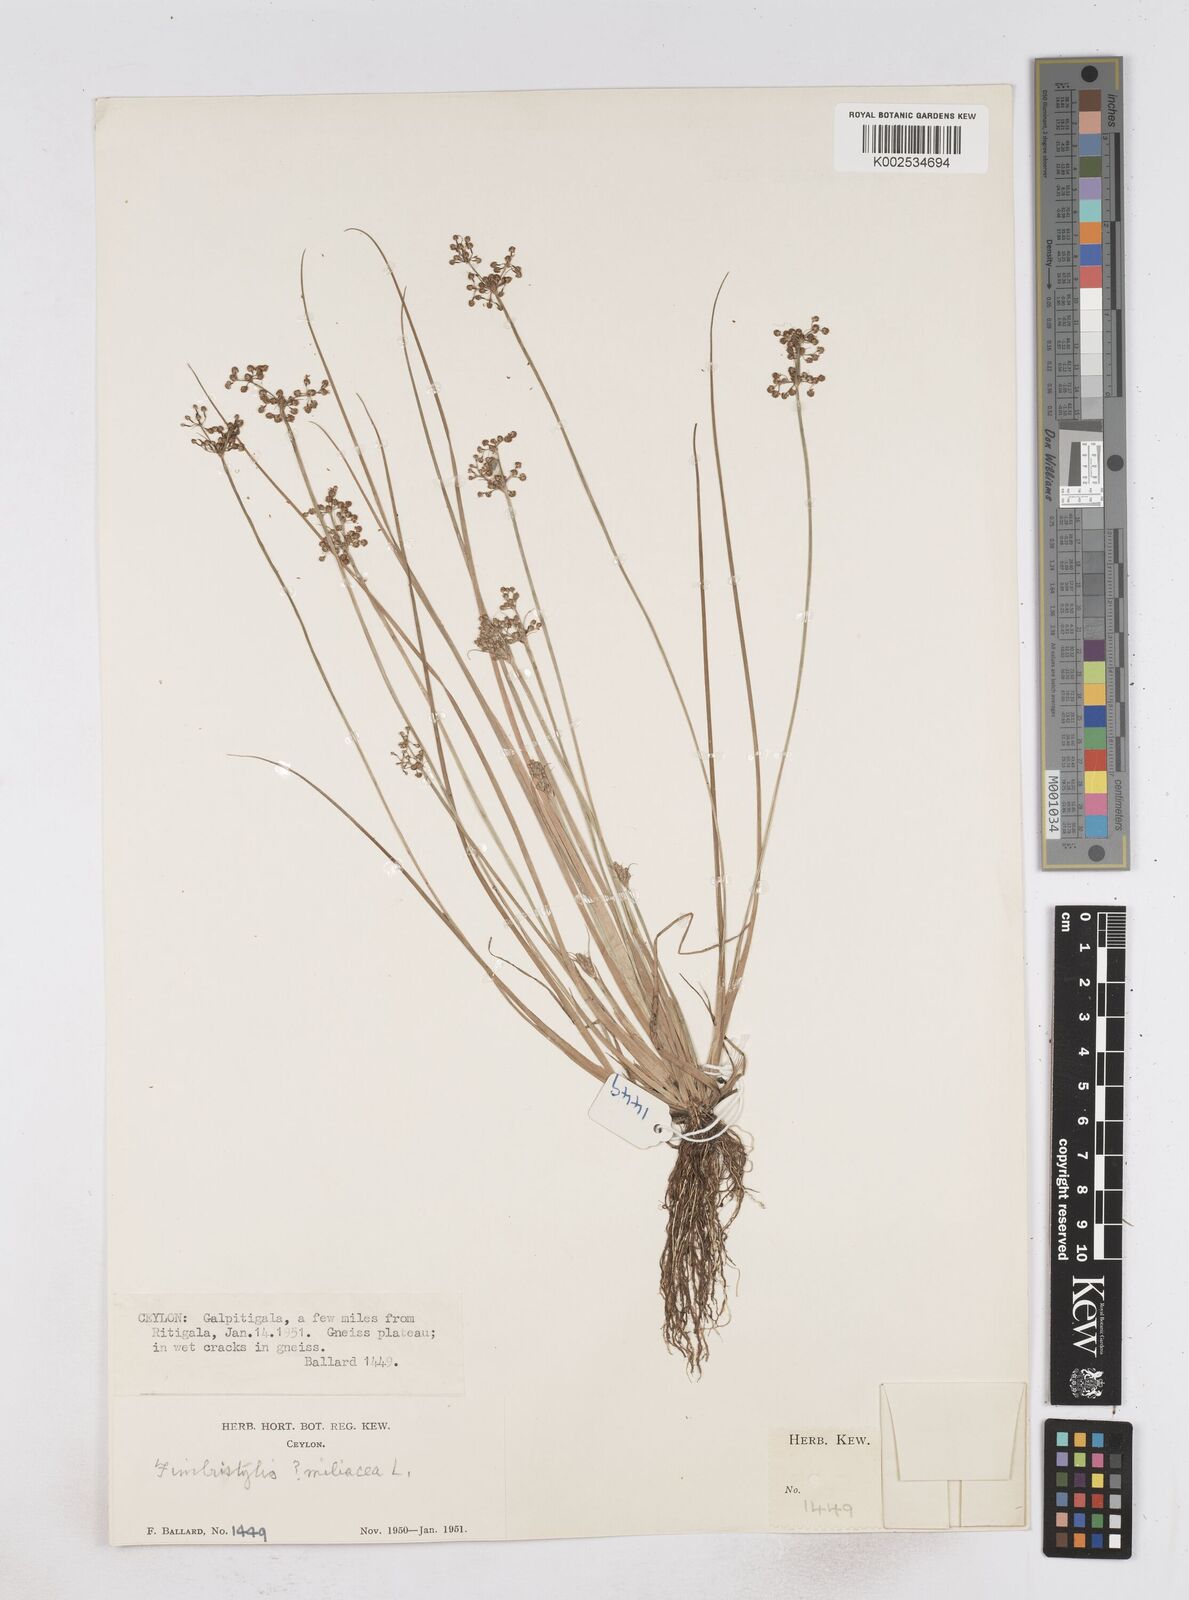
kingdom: Plantae
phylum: Tracheophyta
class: Liliopsida
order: Poales
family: Cyperaceae
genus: Fimbristylis
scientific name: Fimbristylis littoralis
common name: Fimbry
